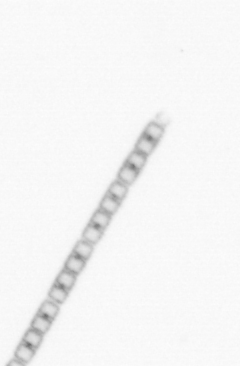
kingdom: Chromista
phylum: Ochrophyta
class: Bacillariophyceae
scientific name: Bacillariophyceae
